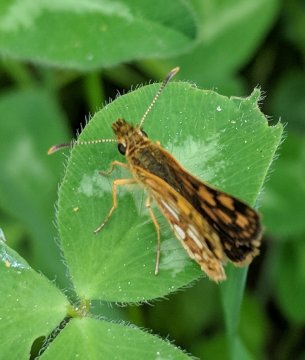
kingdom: Animalia
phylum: Arthropoda
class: Insecta
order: Lepidoptera
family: Hesperiidae
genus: Carterocephalus
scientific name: Carterocephalus palaemon
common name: Chequered Skipper
